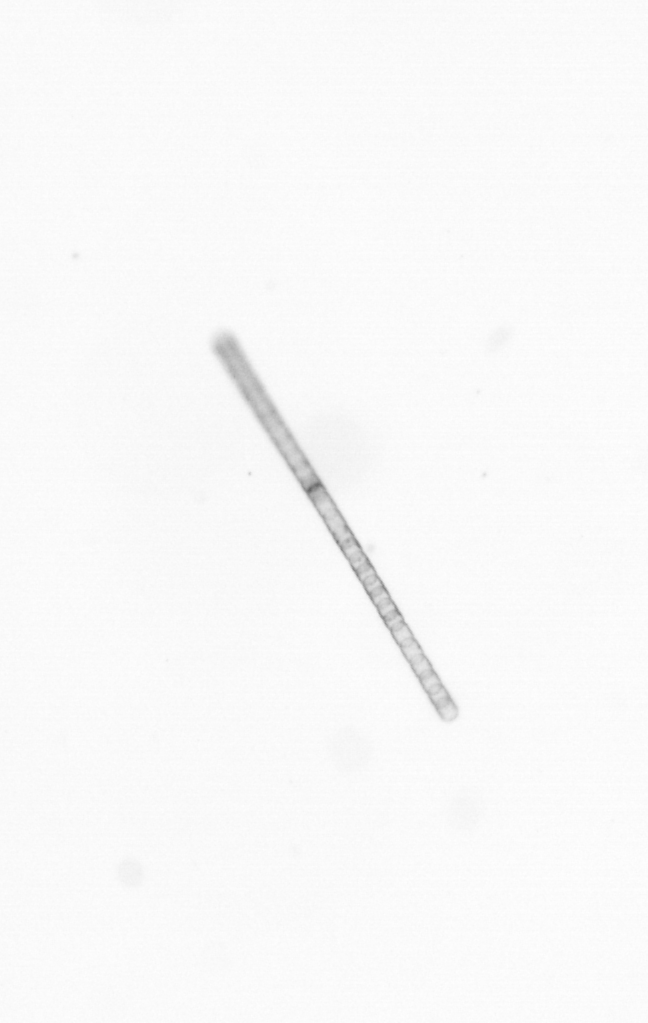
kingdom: Chromista
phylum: Ochrophyta
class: Bacillariophyceae
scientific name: Bacillariophyceae
